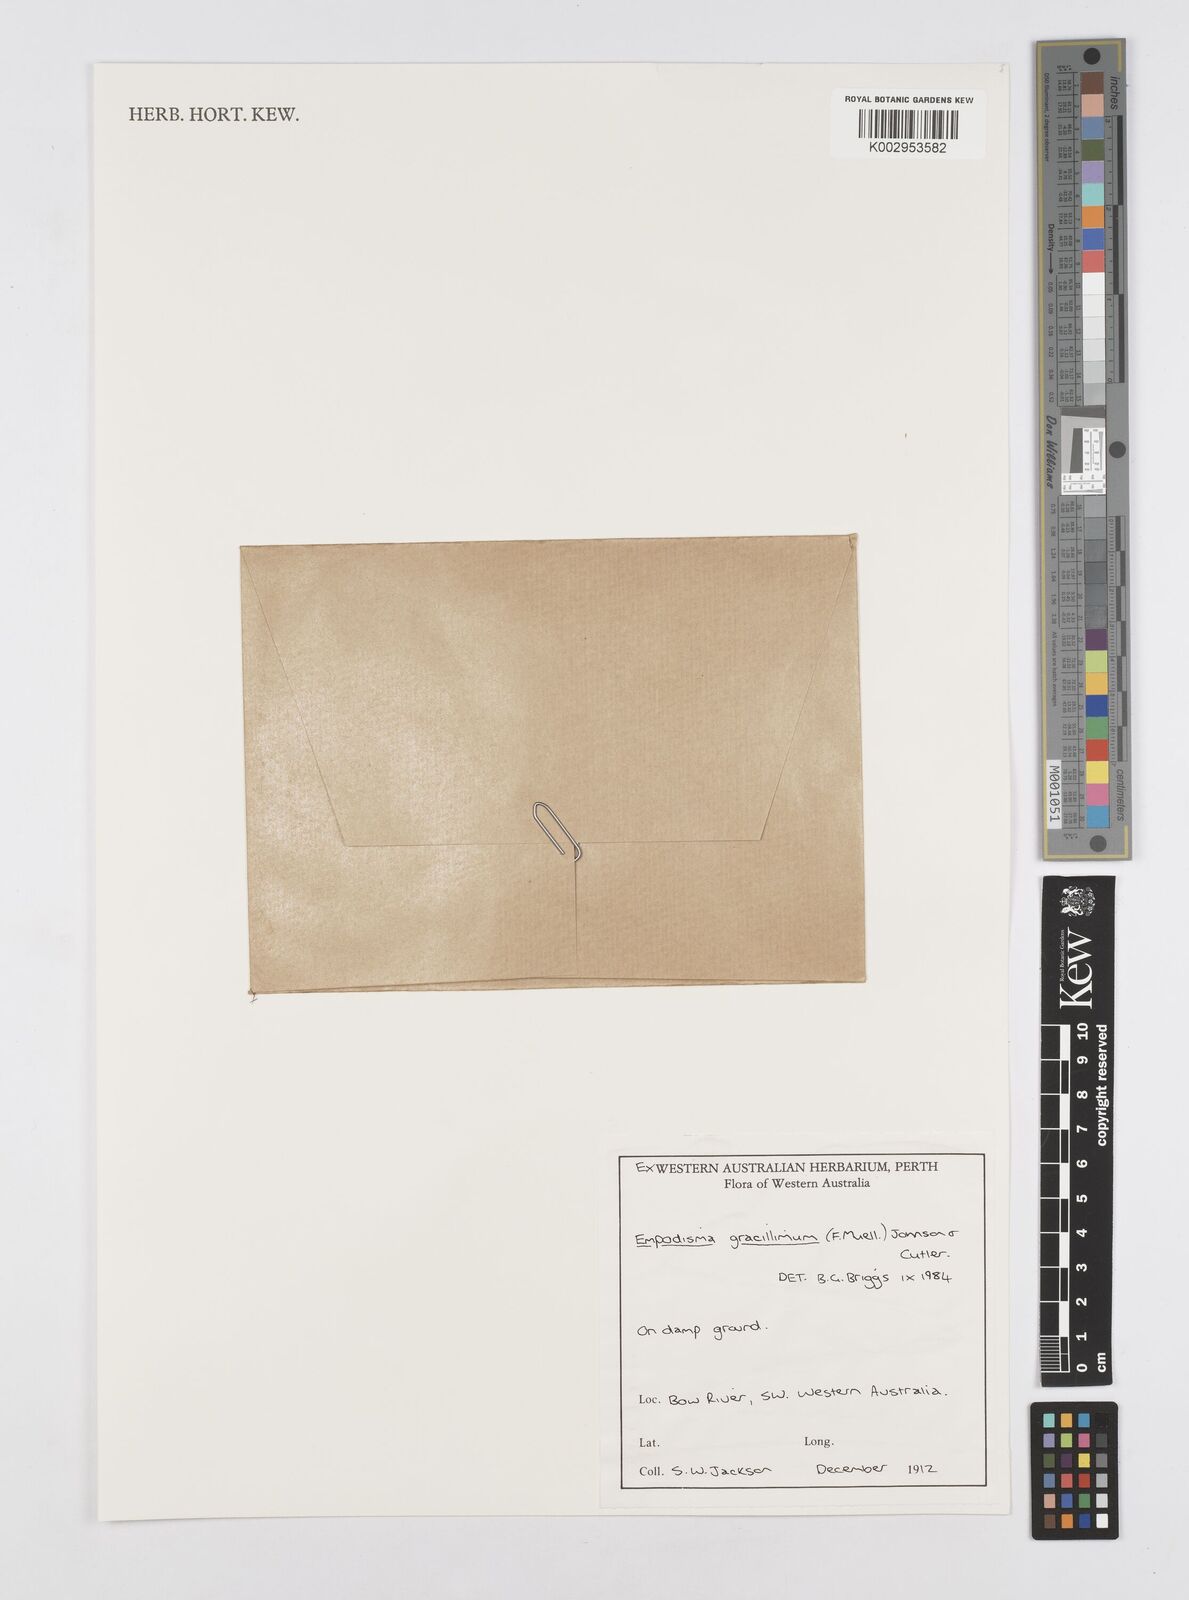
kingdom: Plantae
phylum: Tracheophyta
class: Liliopsida
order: Poales
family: Restionaceae
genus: Empodisma
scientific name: Empodisma gracillimum
